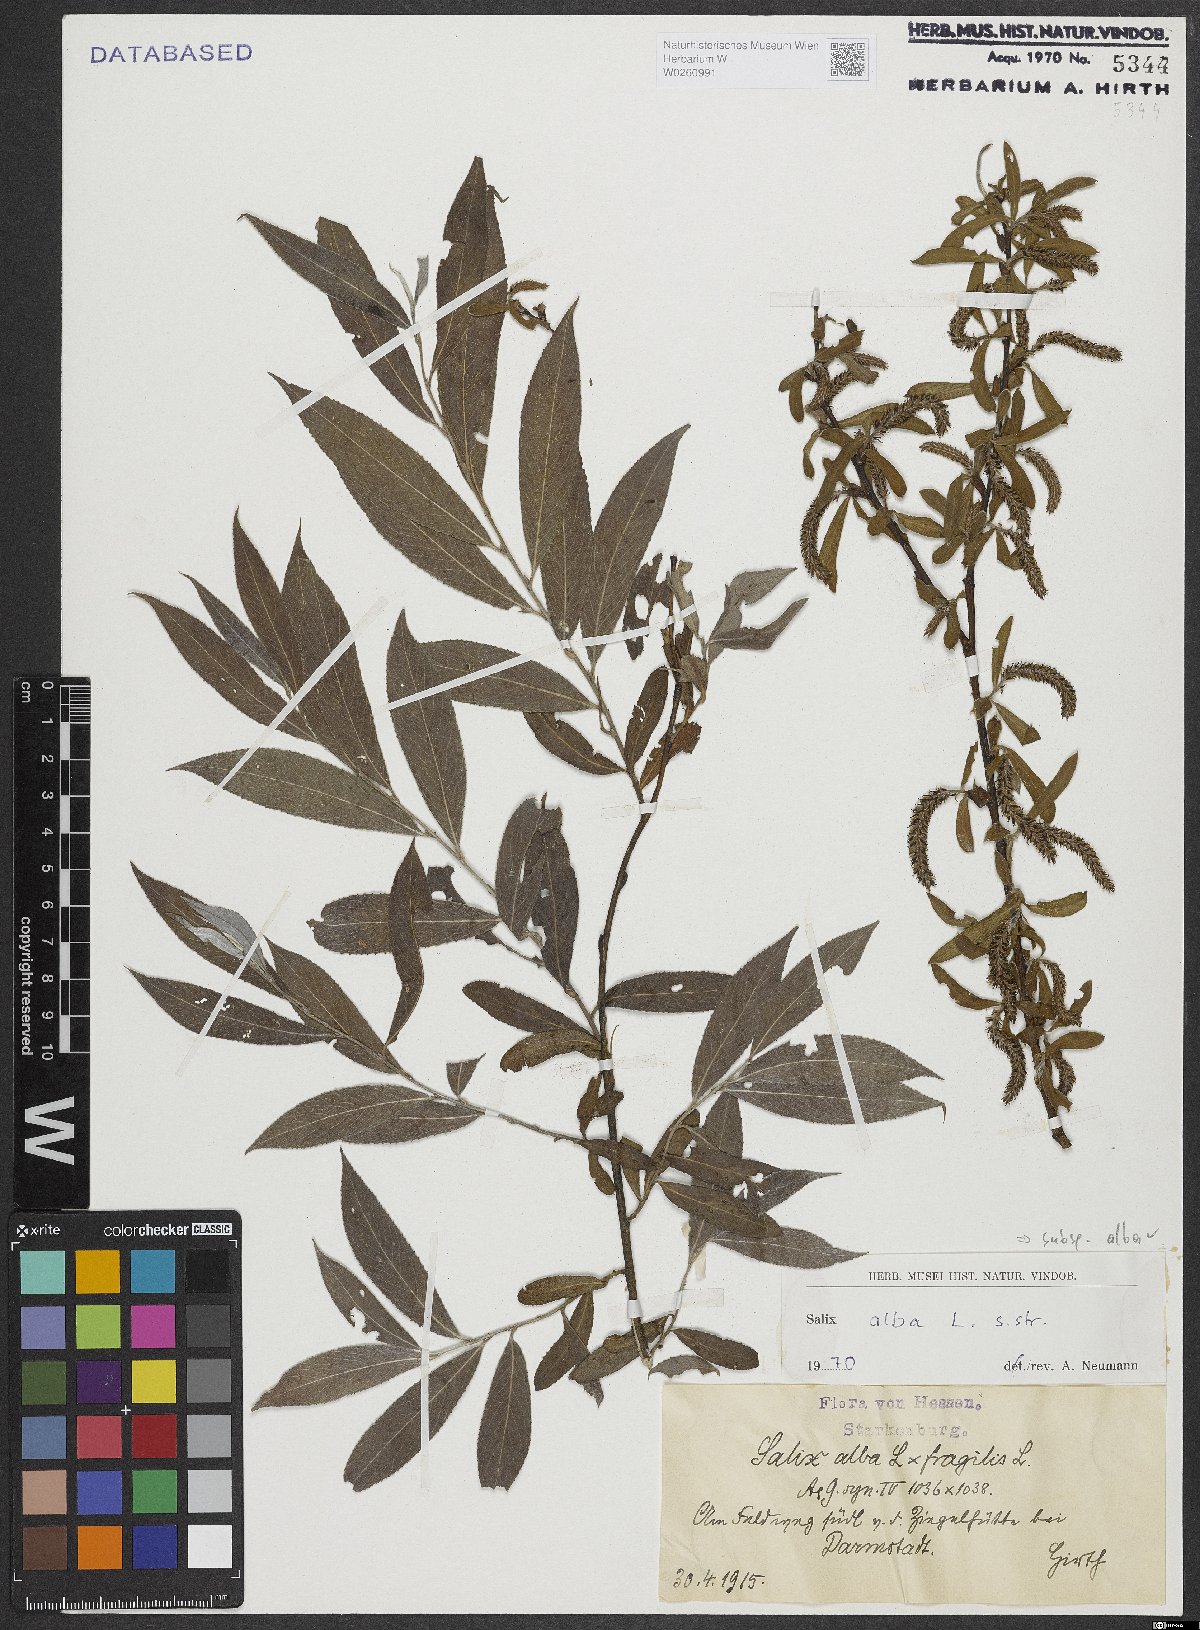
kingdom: Plantae
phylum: Tracheophyta
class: Magnoliopsida
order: Malpighiales
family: Salicaceae
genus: Salix
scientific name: Salix alba
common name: White willow
